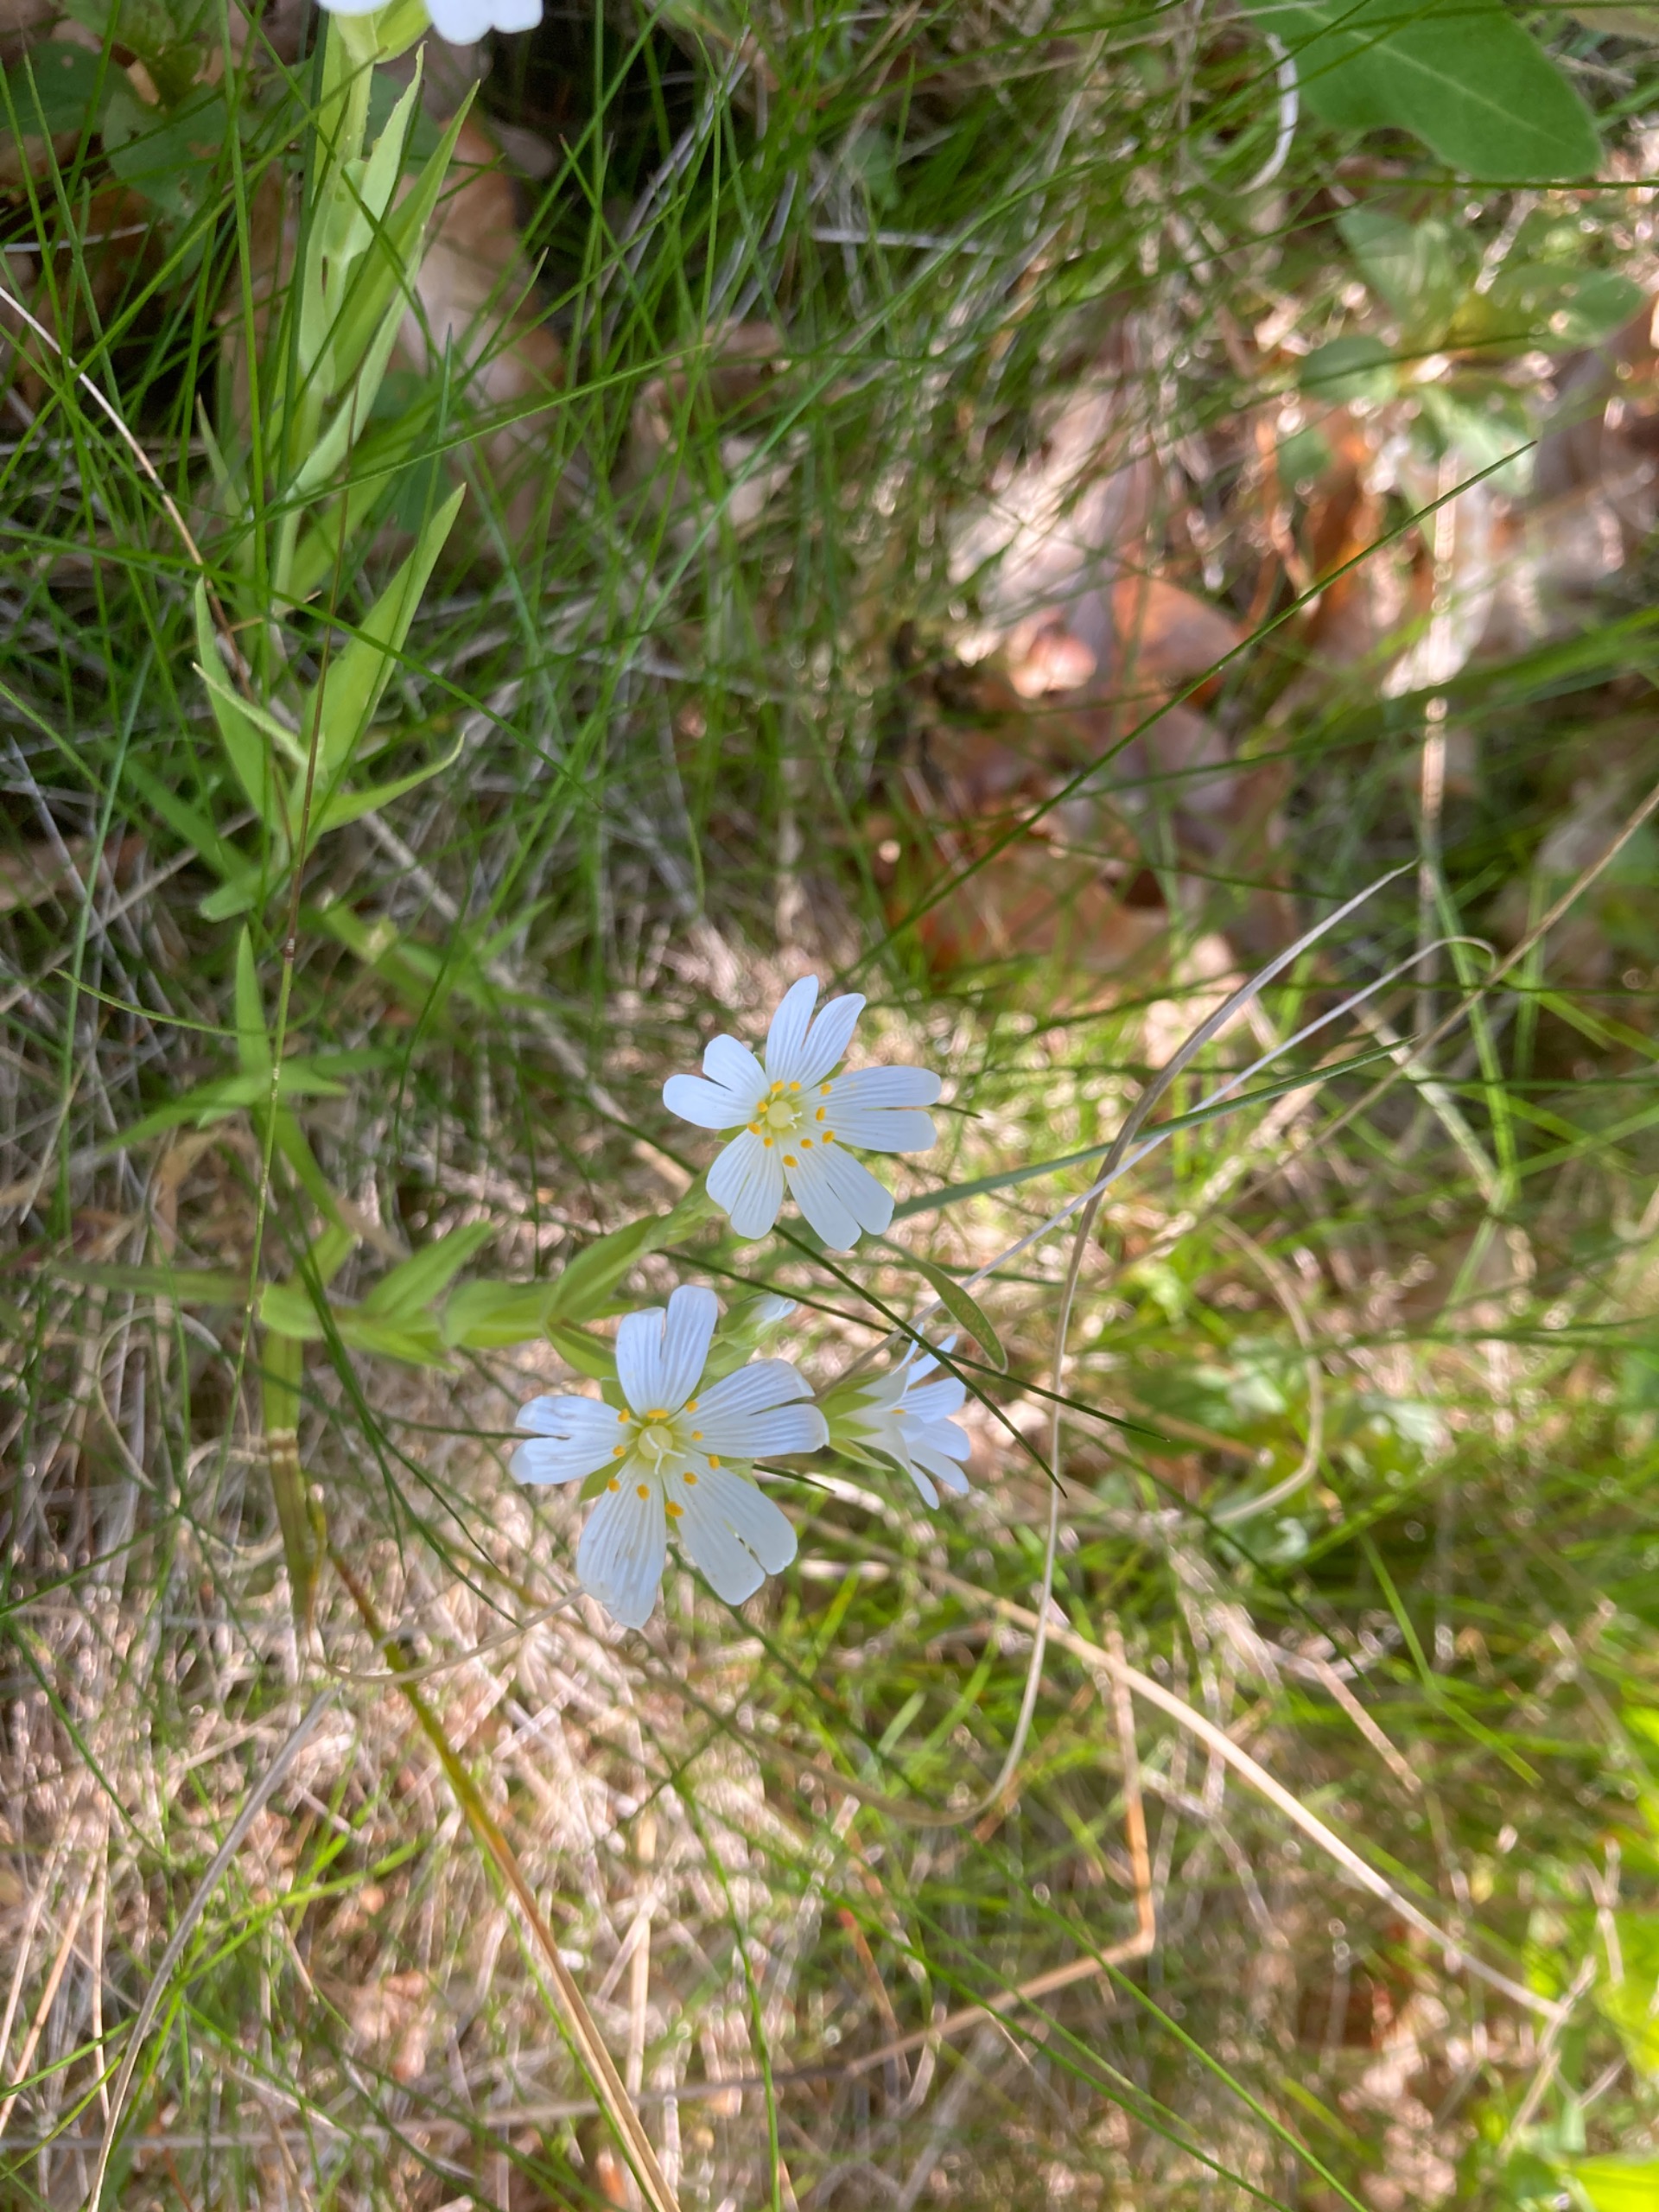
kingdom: Plantae
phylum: Tracheophyta
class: Magnoliopsida
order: Caryophyllales
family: Caryophyllaceae
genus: Rabelera
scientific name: Rabelera holostea
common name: Stor fladstjerne
